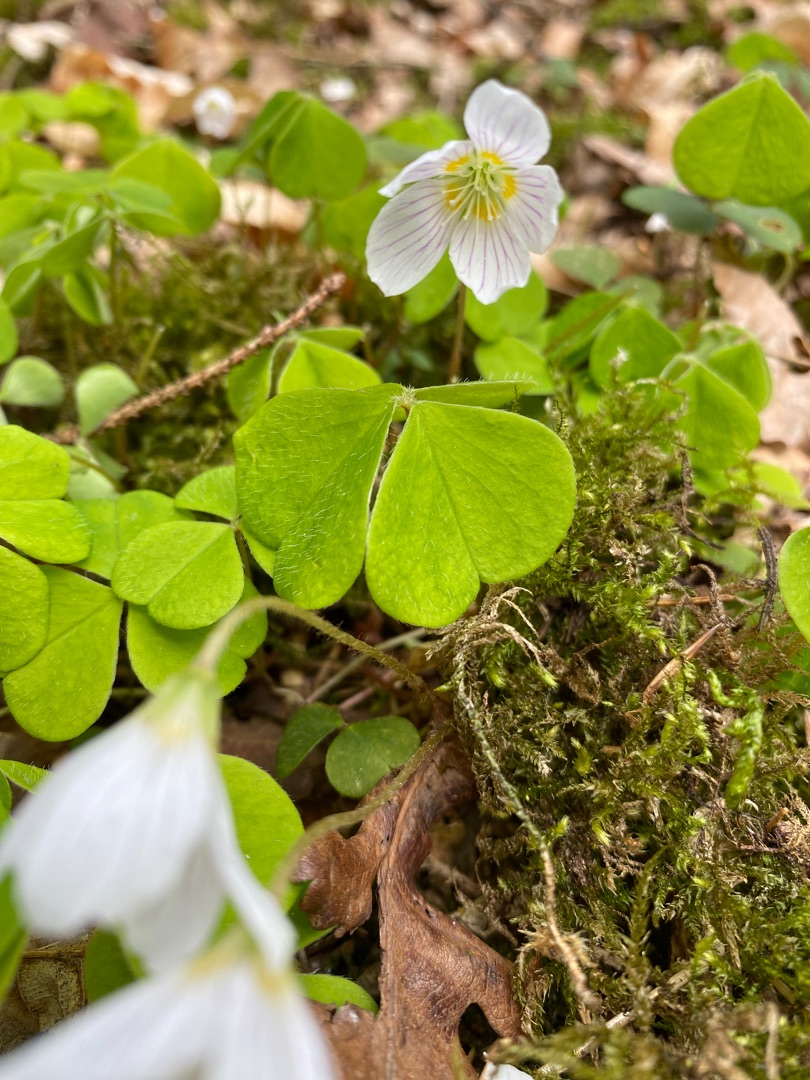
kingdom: Plantae
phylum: Tracheophyta
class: Magnoliopsida
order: Oxalidales
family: Oxalidaceae
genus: Oxalis
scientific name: Oxalis acetosella
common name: Skovsyre
